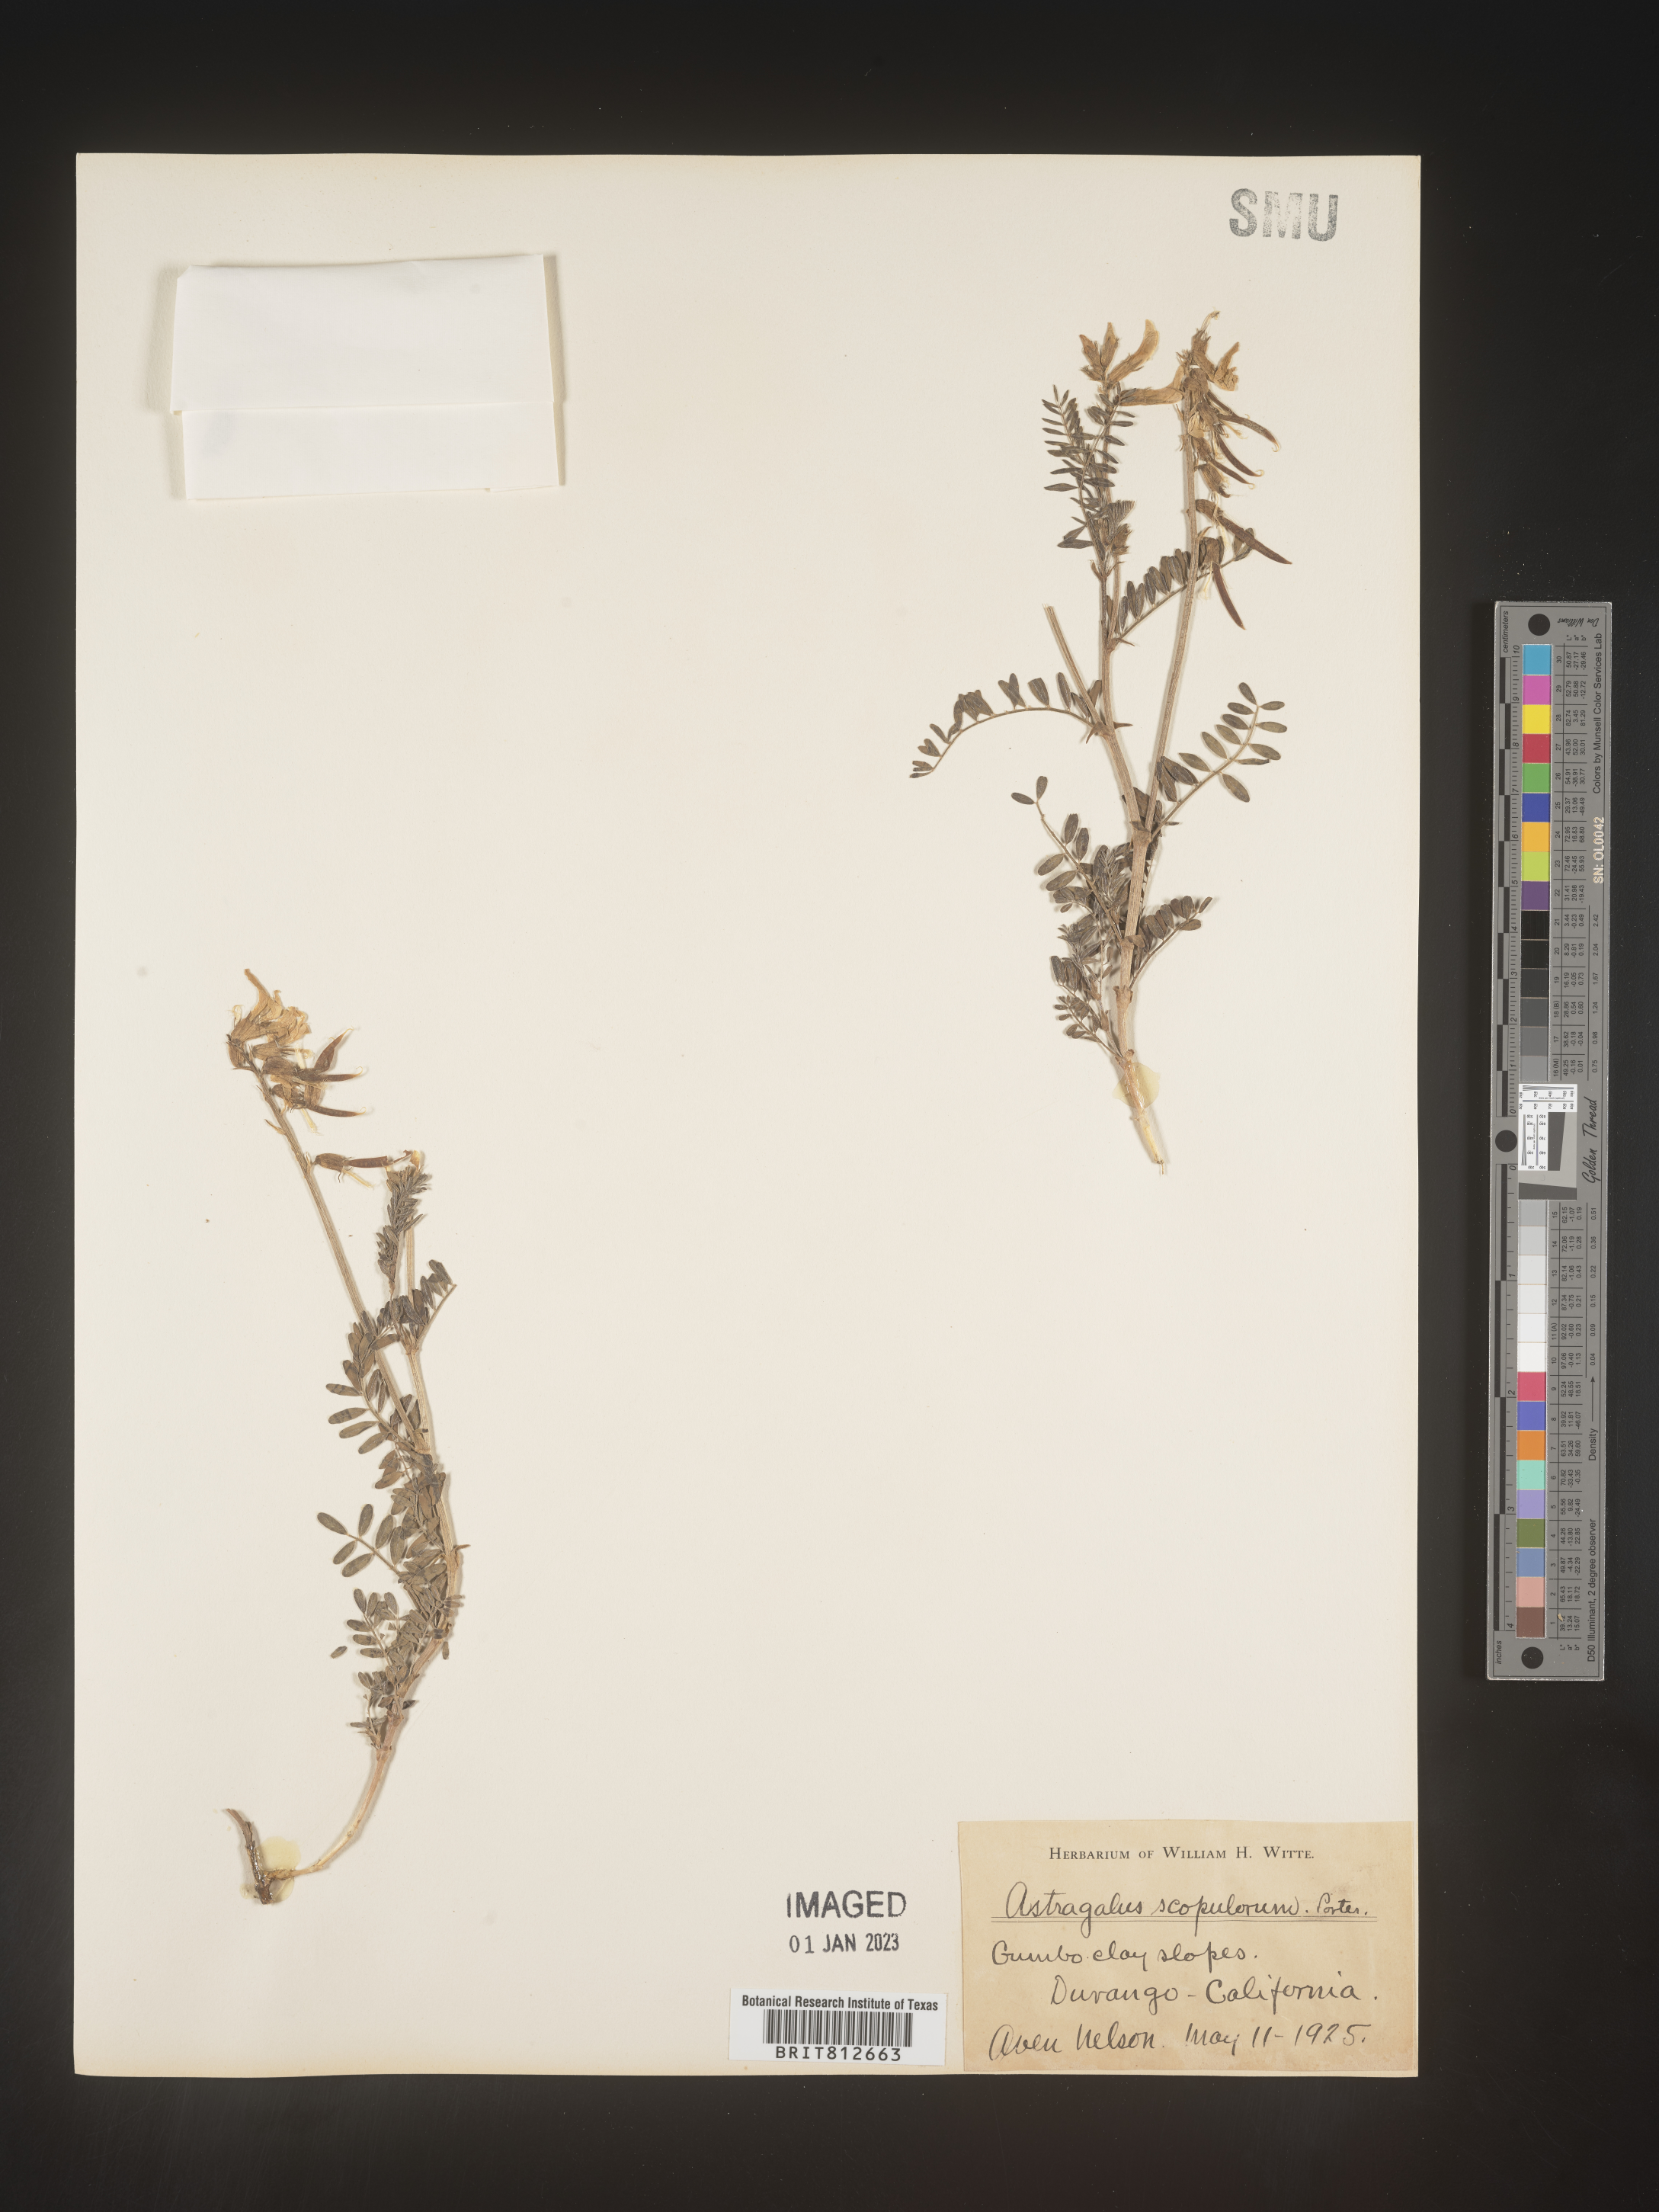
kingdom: Plantae
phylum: Tracheophyta
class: Magnoliopsida
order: Fabales
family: Fabaceae
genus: Astragalus
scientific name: Astragalus
